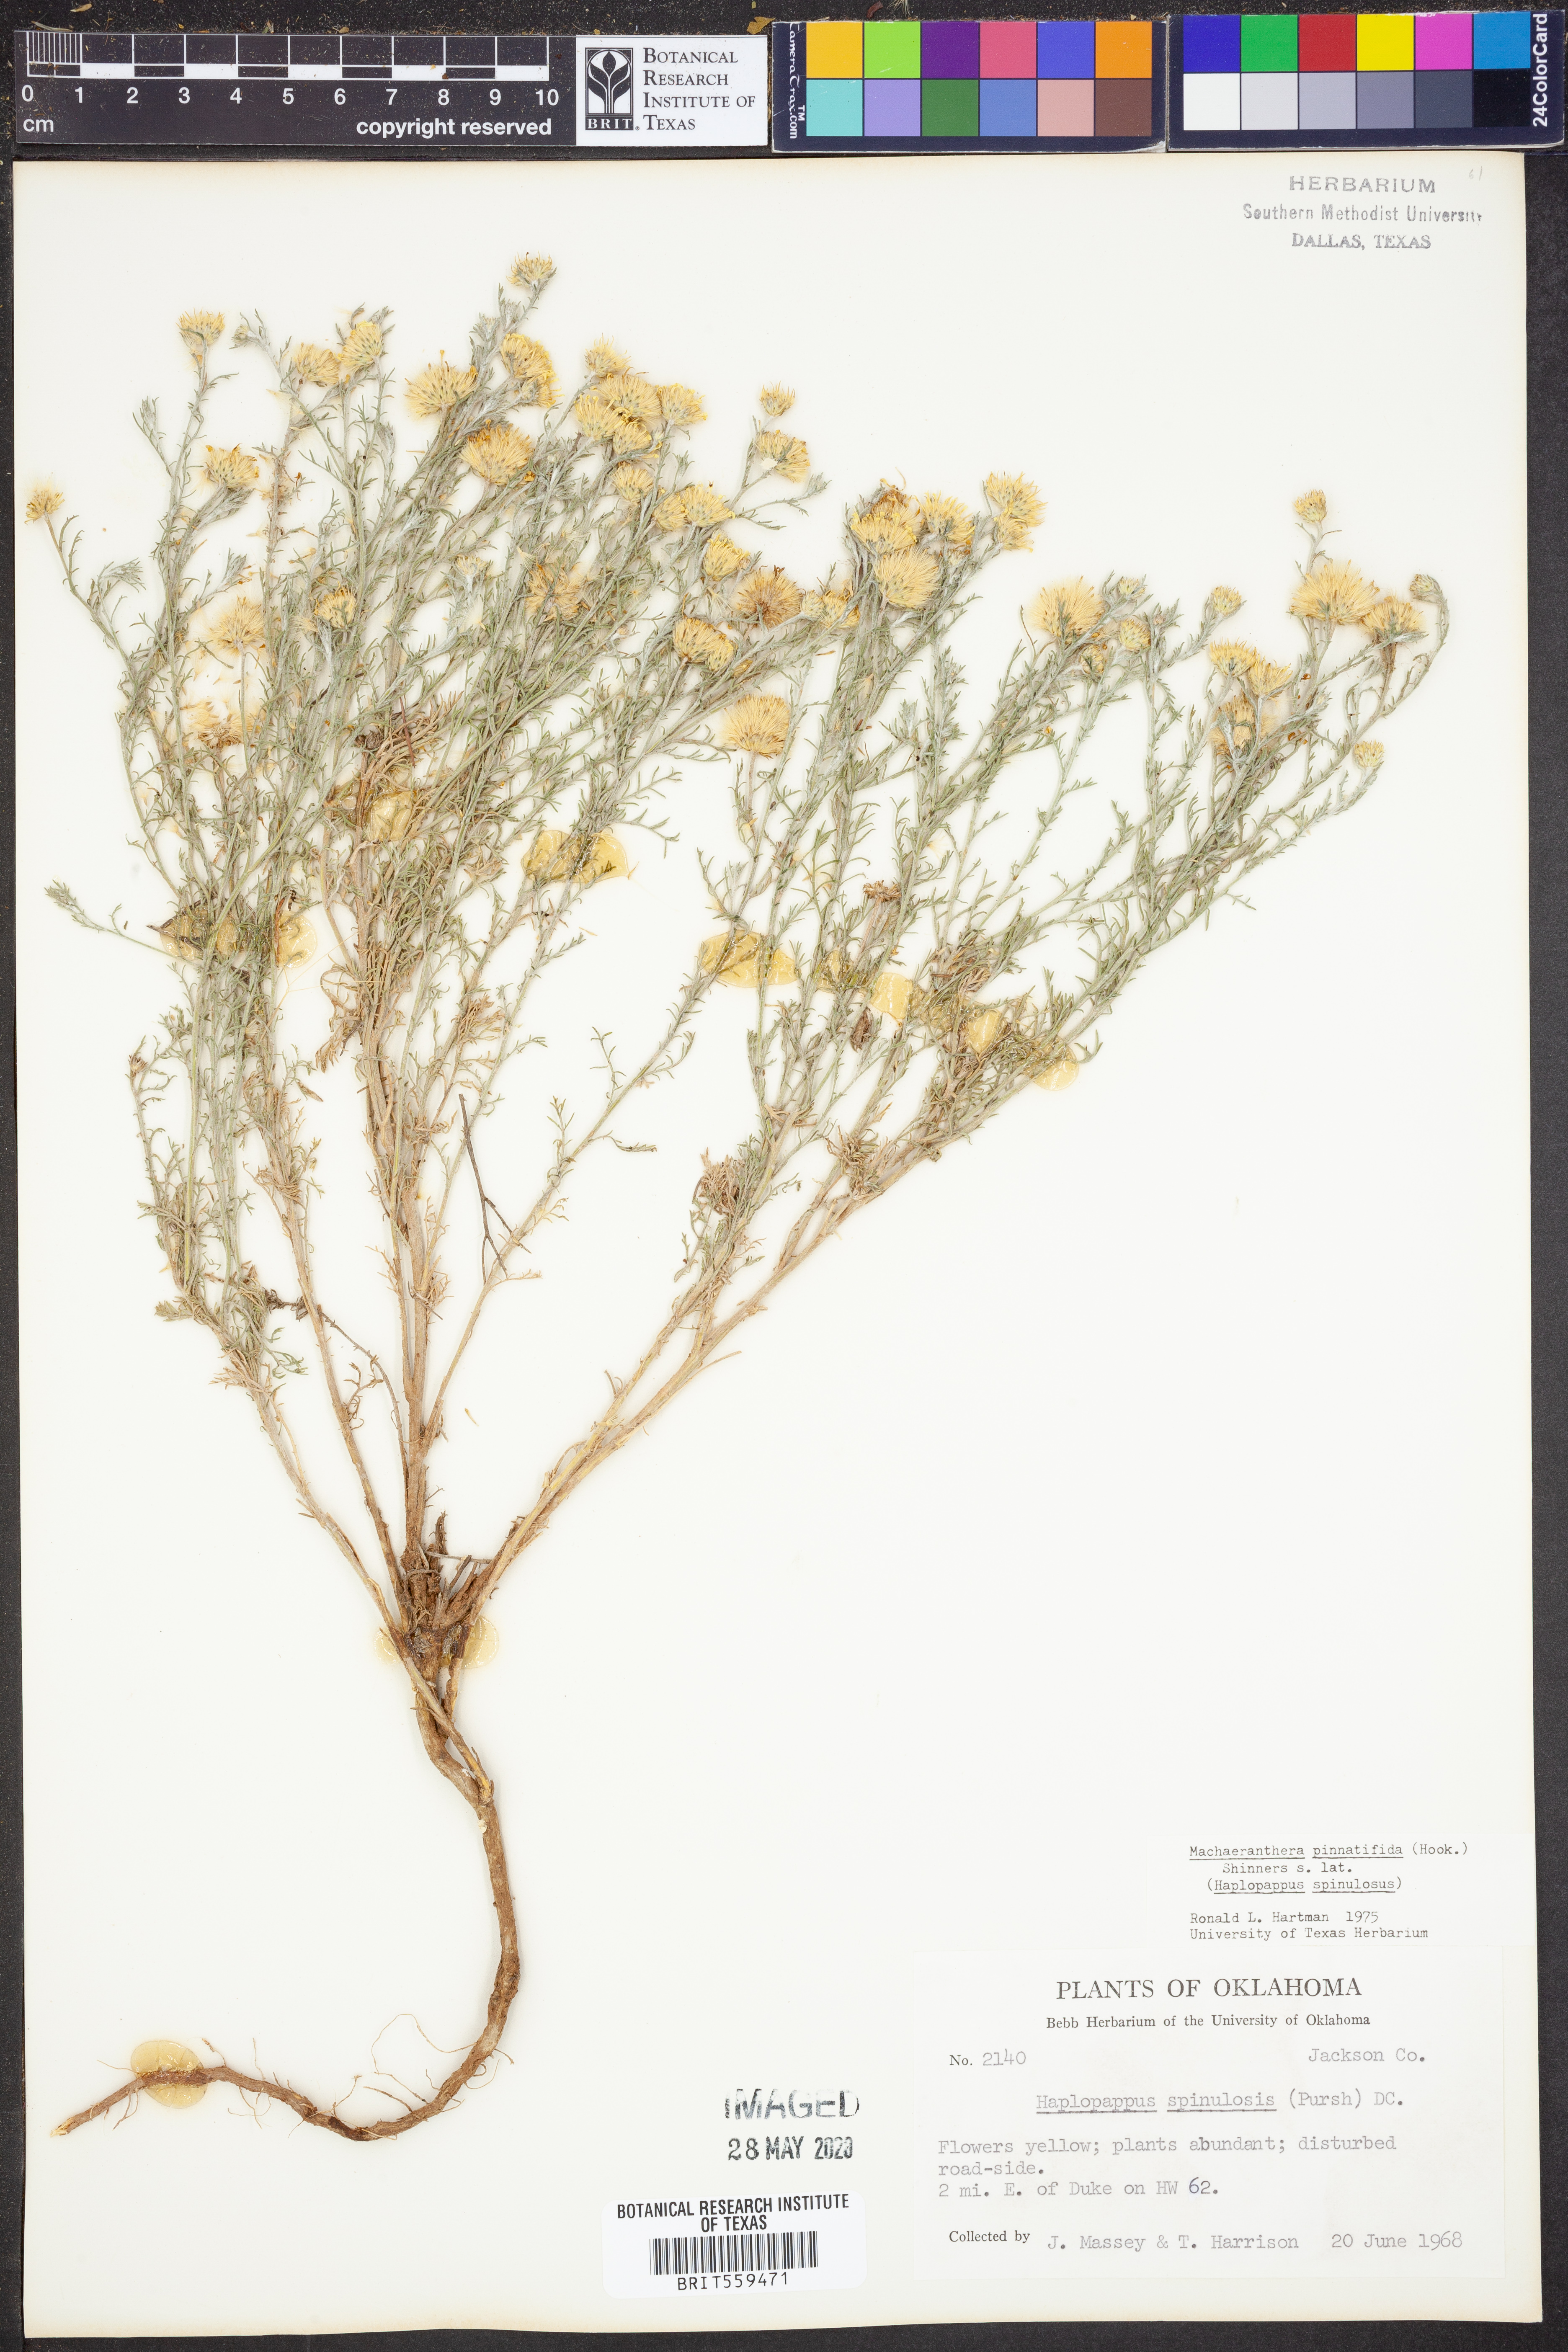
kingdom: Plantae
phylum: Tracheophyta
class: Magnoliopsida
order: Asterales
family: Asteraceae
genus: Xanthisma
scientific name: Xanthisma spinulosum
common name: Spiny goldenweed
